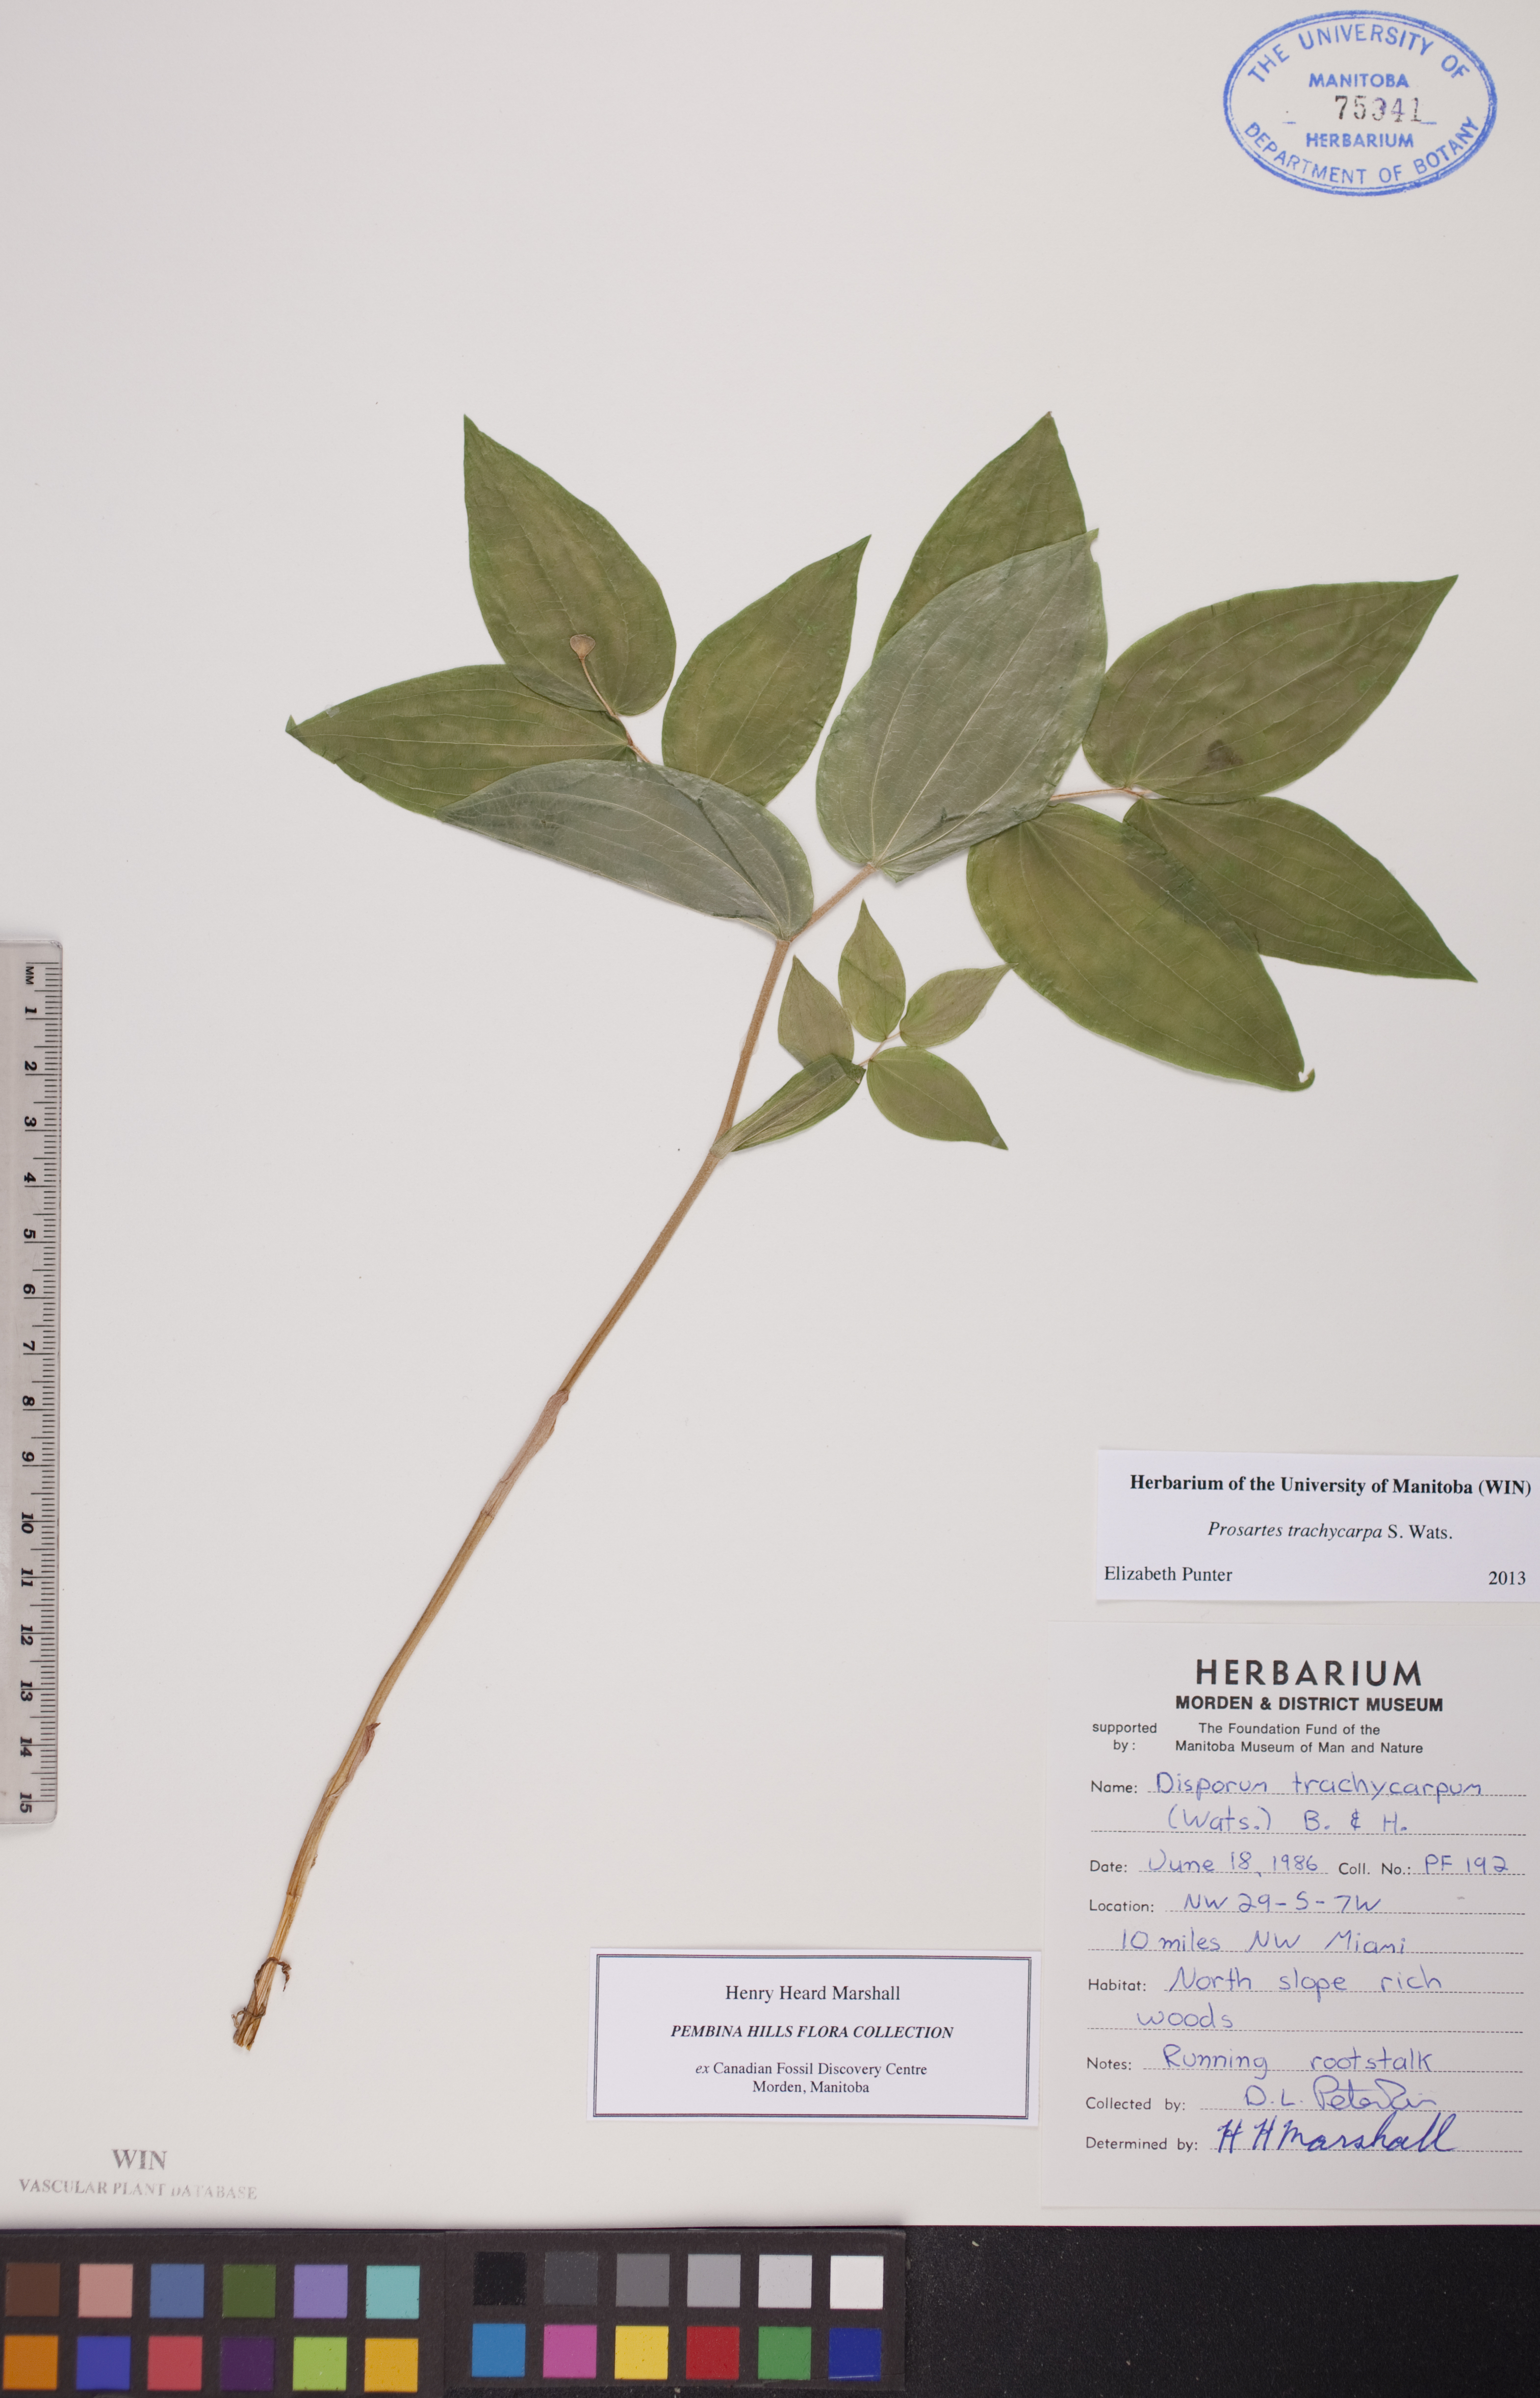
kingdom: Plantae
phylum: Tracheophyta
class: Liliopsida
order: Liliales
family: Liliaceae
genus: Prosartes
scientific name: Prosartes trachycarpa
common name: Rough-fruit fairy-bells
